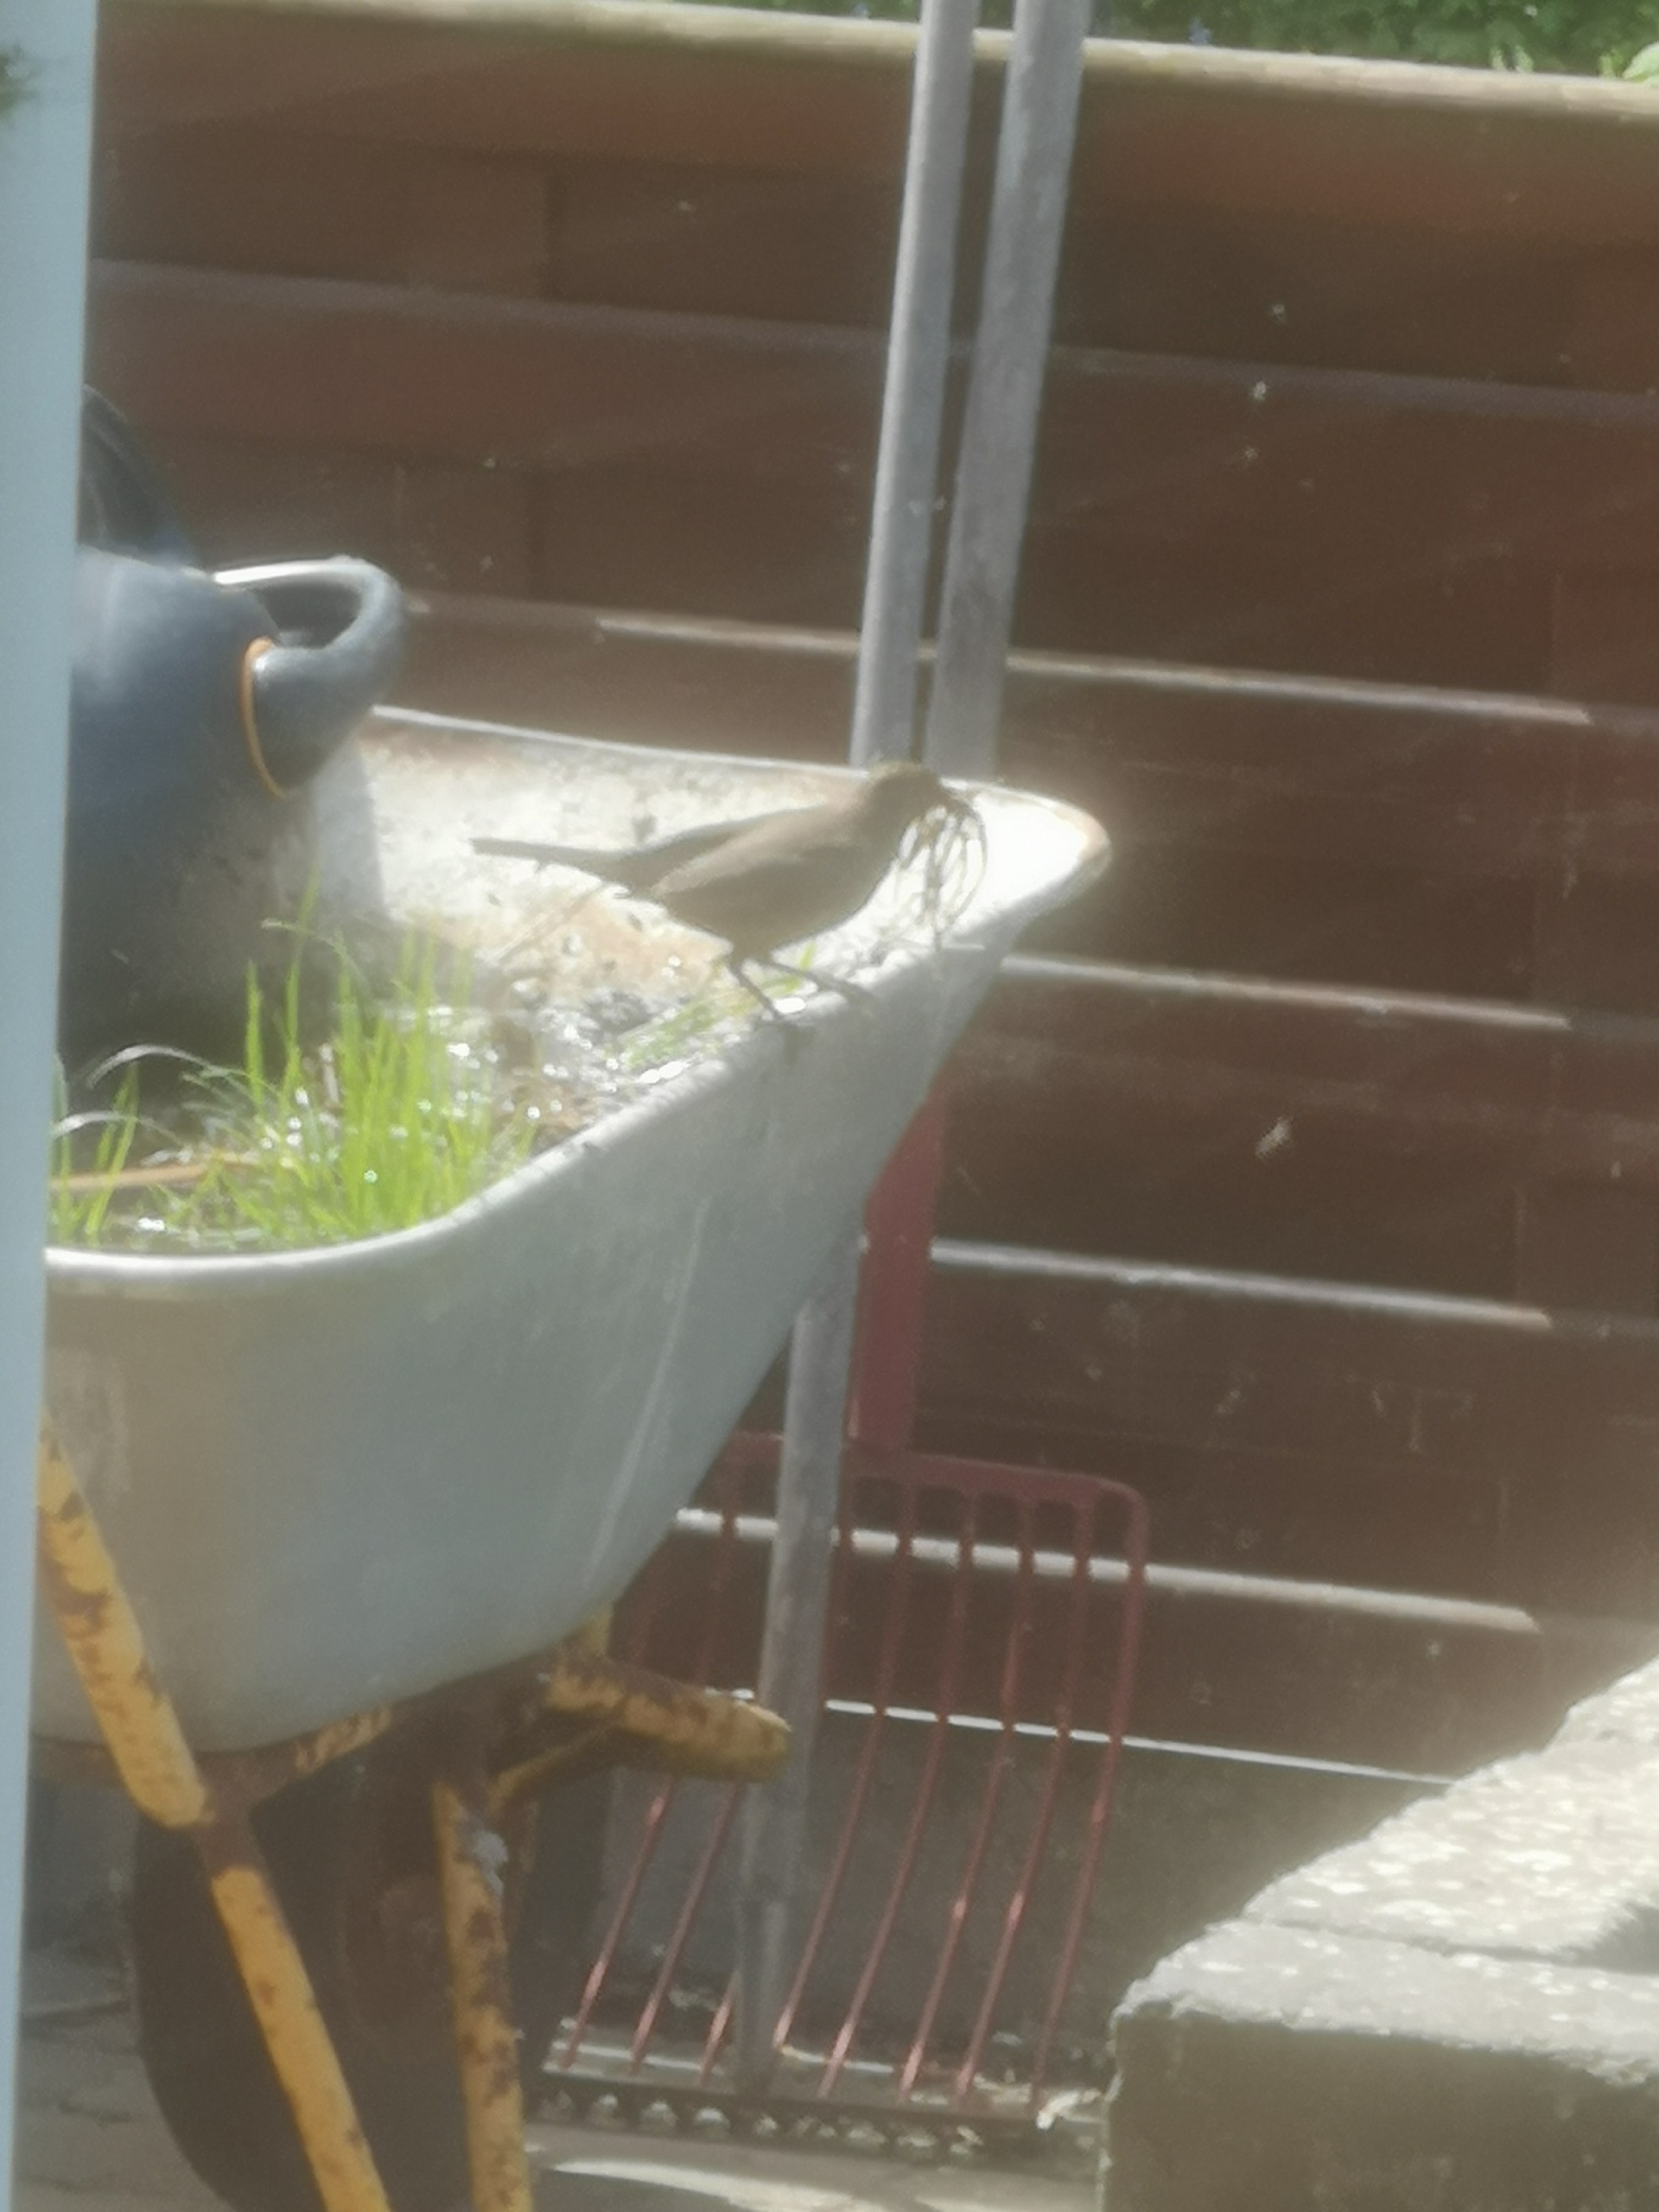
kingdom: Animalia
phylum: Chordata
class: Aves
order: Passeriformes
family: Turdidae
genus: Turdus
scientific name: Turdus merula
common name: Solsort
